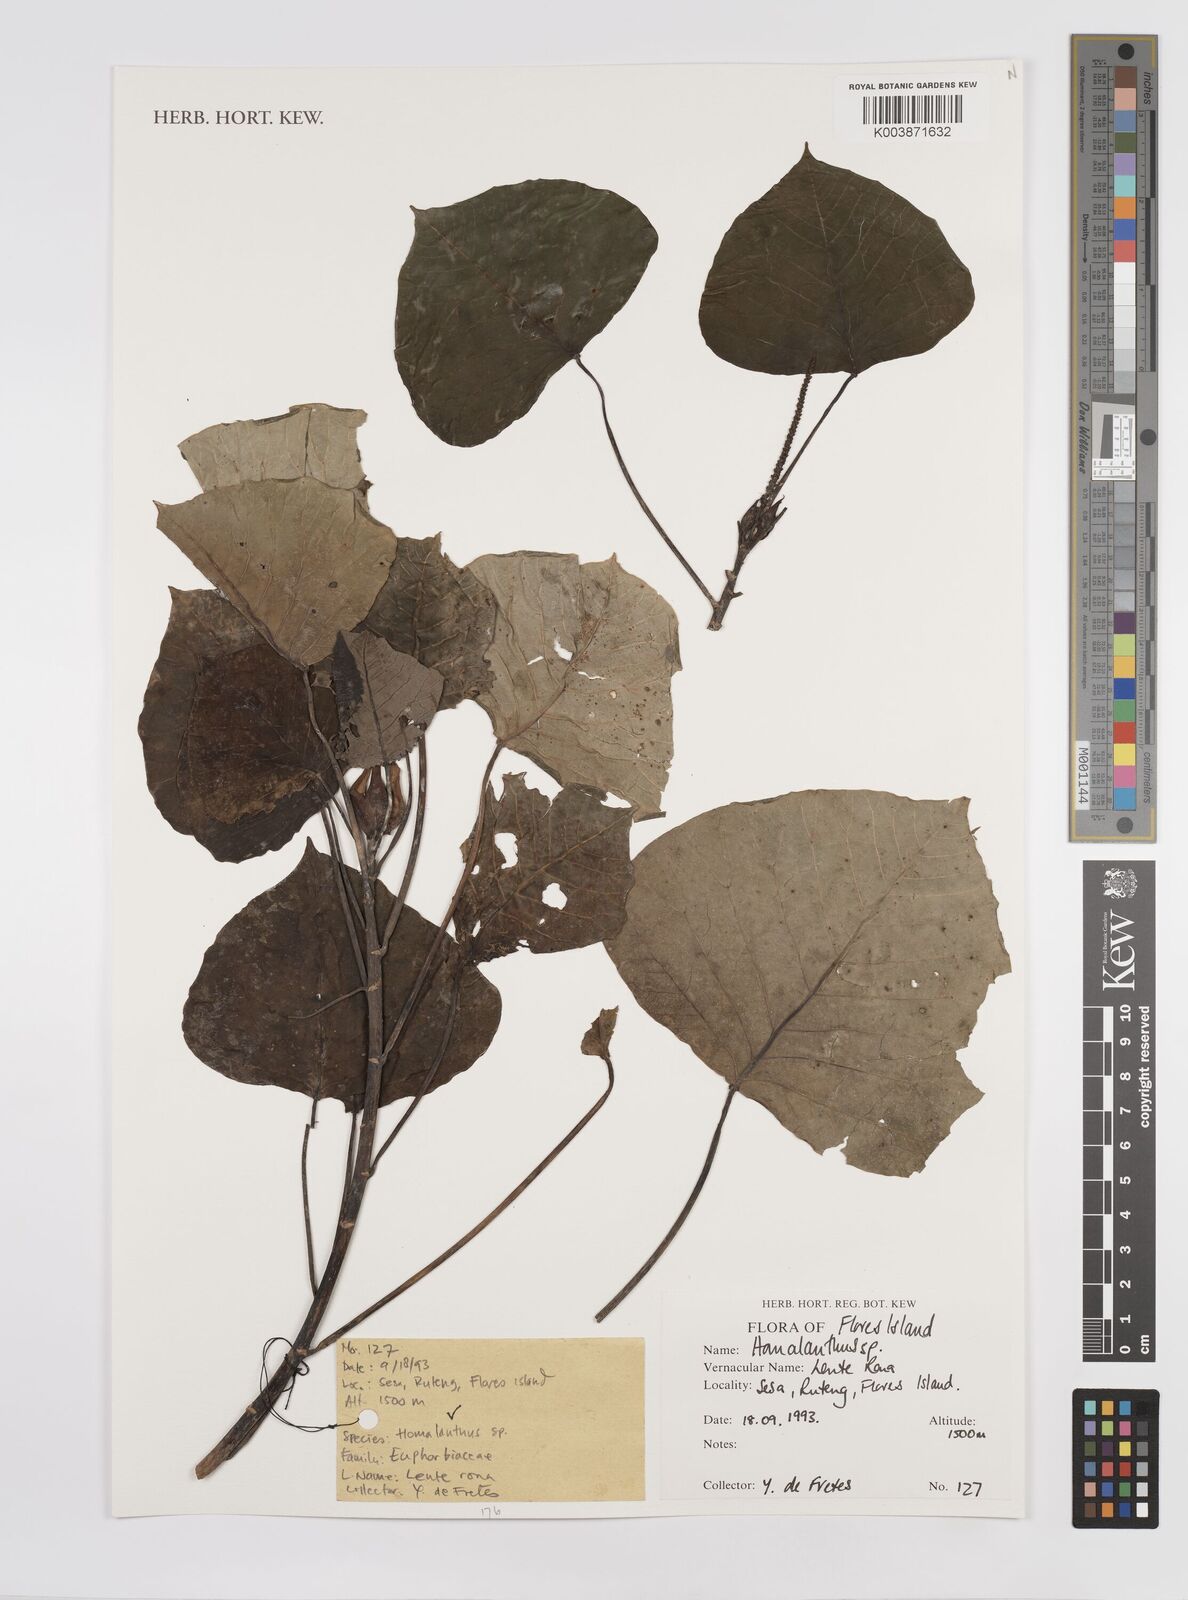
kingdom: Plantae
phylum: Tracheophyta
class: Magnoliopsida
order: Malpighiales
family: Euphorbiaceae
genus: Homalanthus
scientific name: Homalanthus
